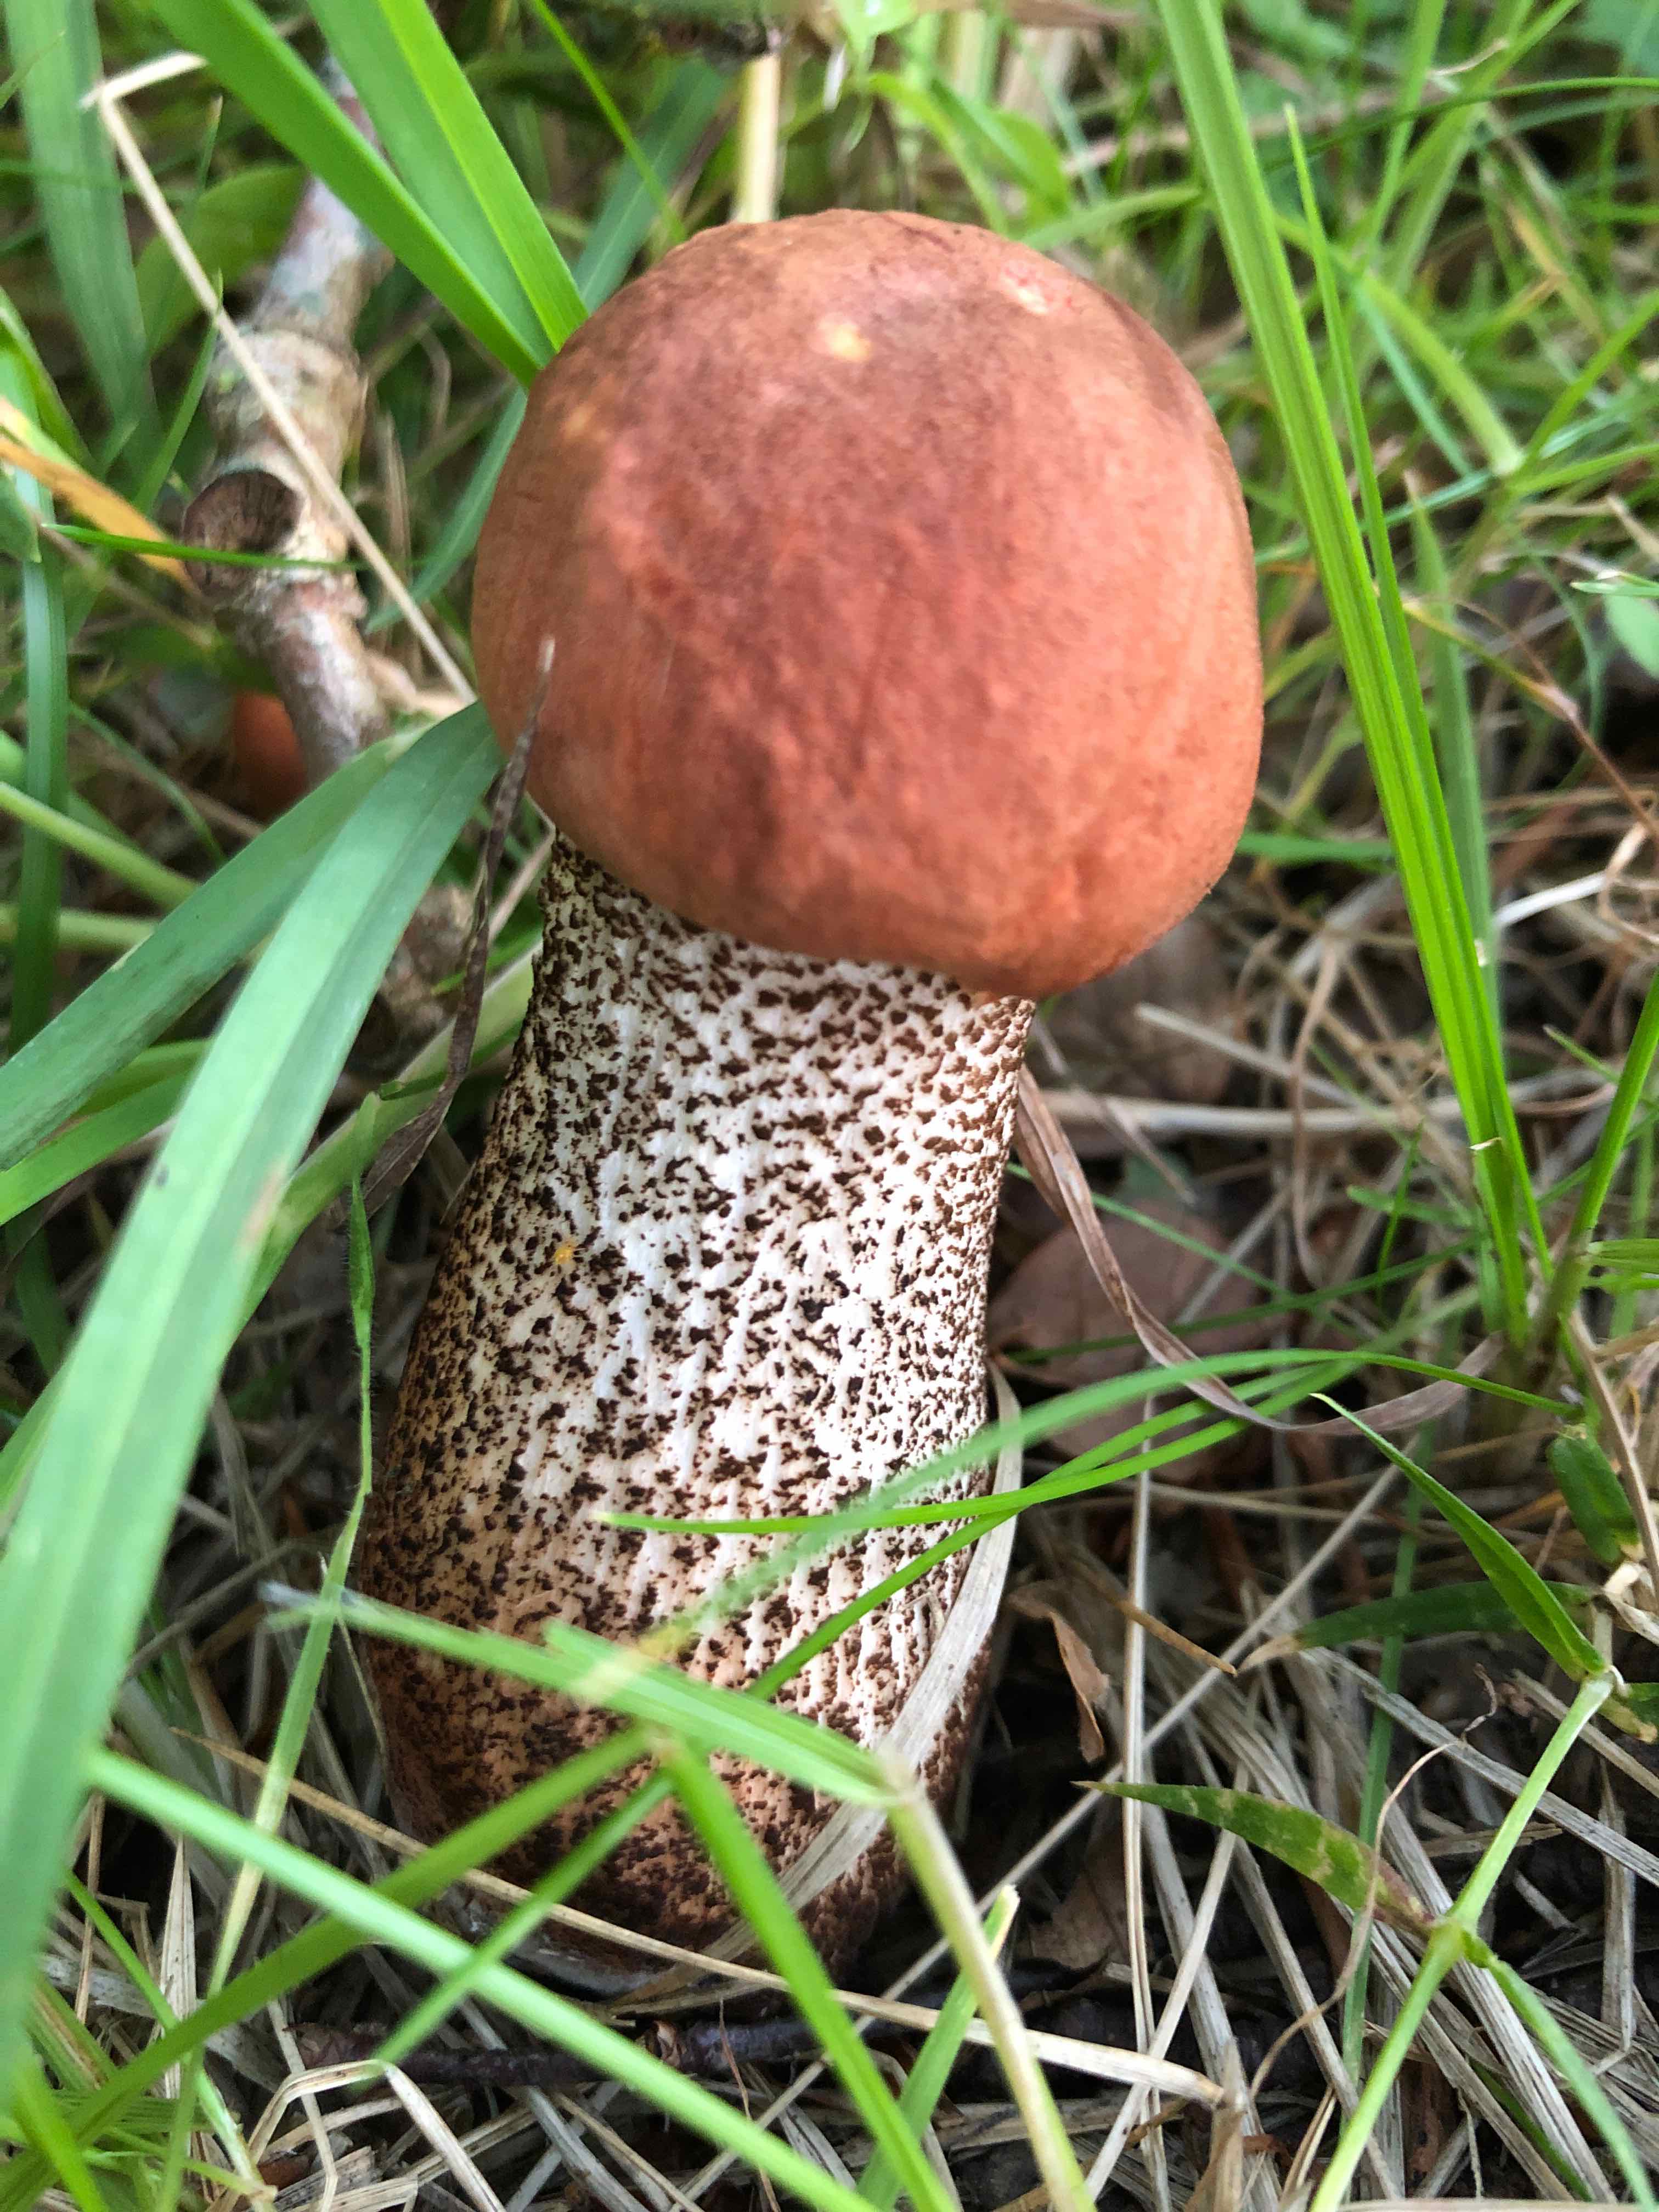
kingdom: Fungi
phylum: Basidiomycota
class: Agaricomycetes
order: Boletales
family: Boletaceae
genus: Leccinum
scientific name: Leccinum aurantiacum
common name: rustrød skælrørhat
